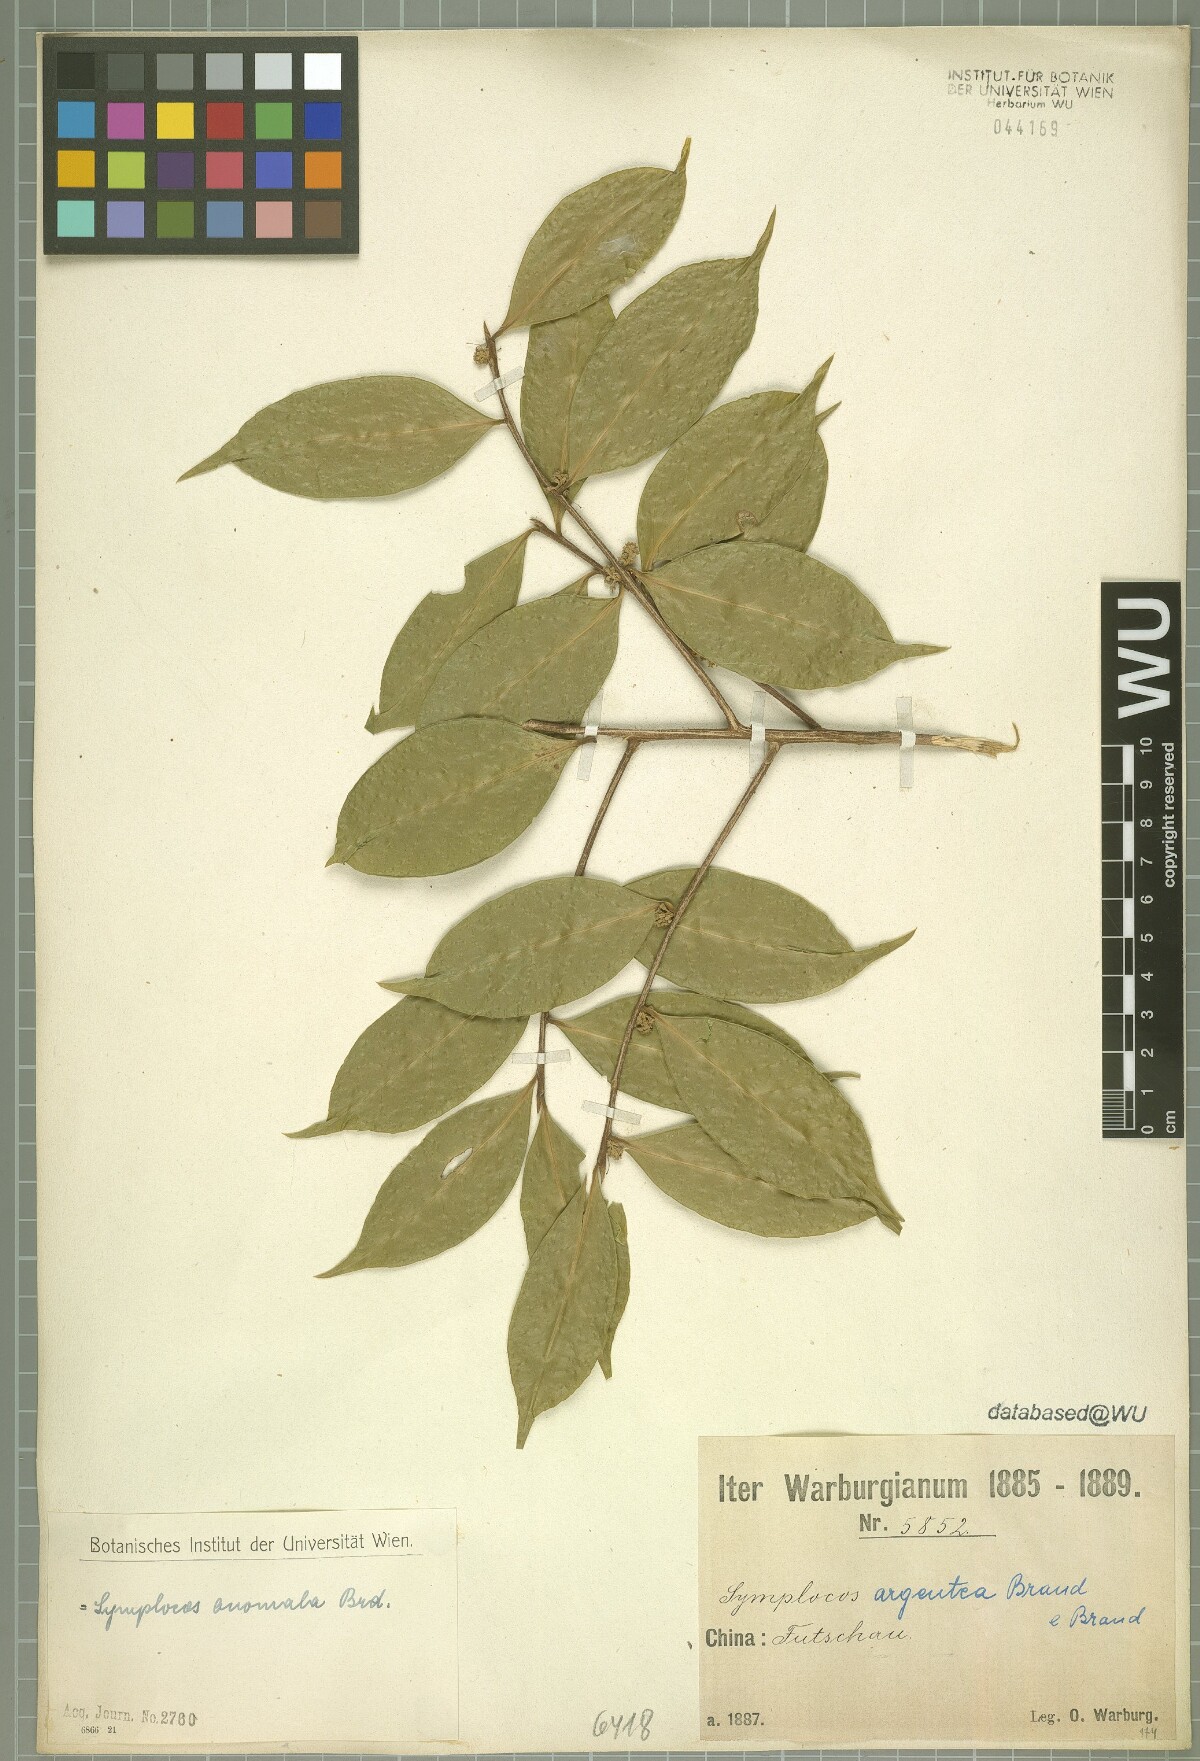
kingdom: Plantae
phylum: Tracheophyta
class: Magnoliopsida
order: Ericales
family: Symplocaceae
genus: Symplocos
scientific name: Symplocos anomala
